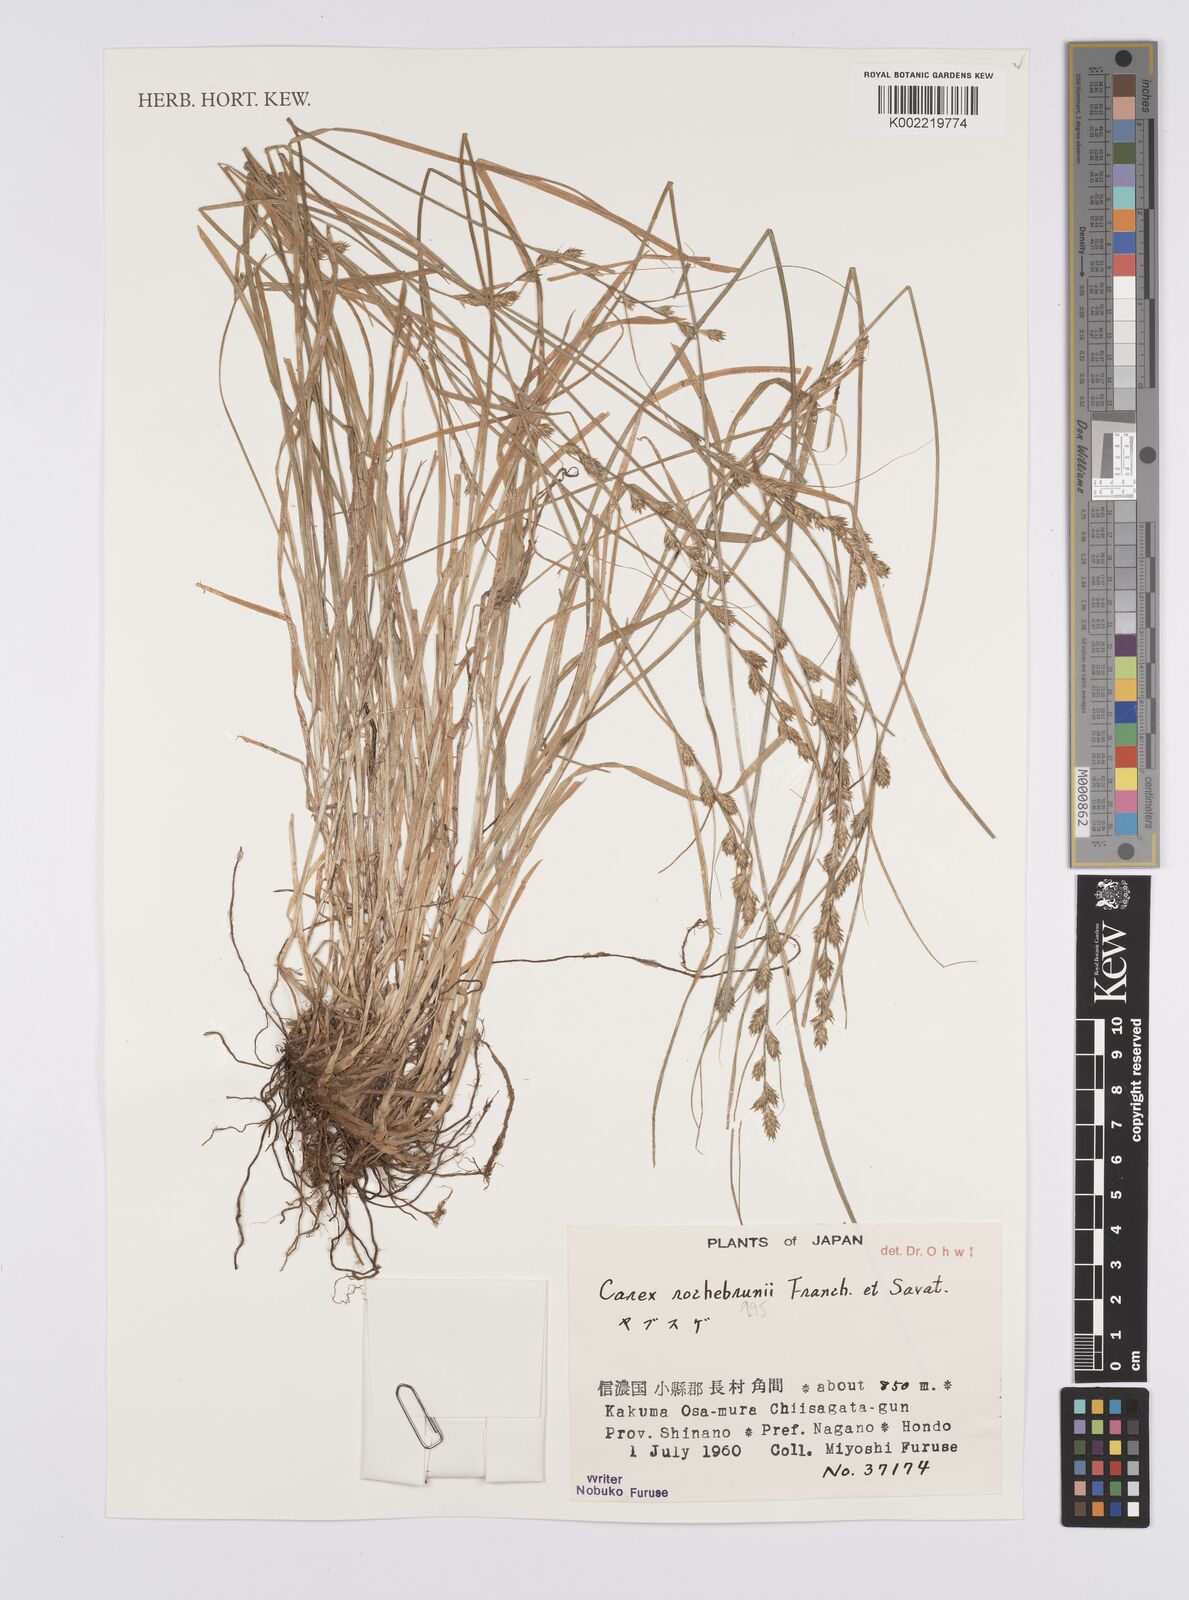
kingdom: Plantae
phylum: Tracheophyta
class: Liliopsida
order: Poales
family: Cyperaceae
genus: Carex
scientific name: Carex remota
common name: Remote sedge
